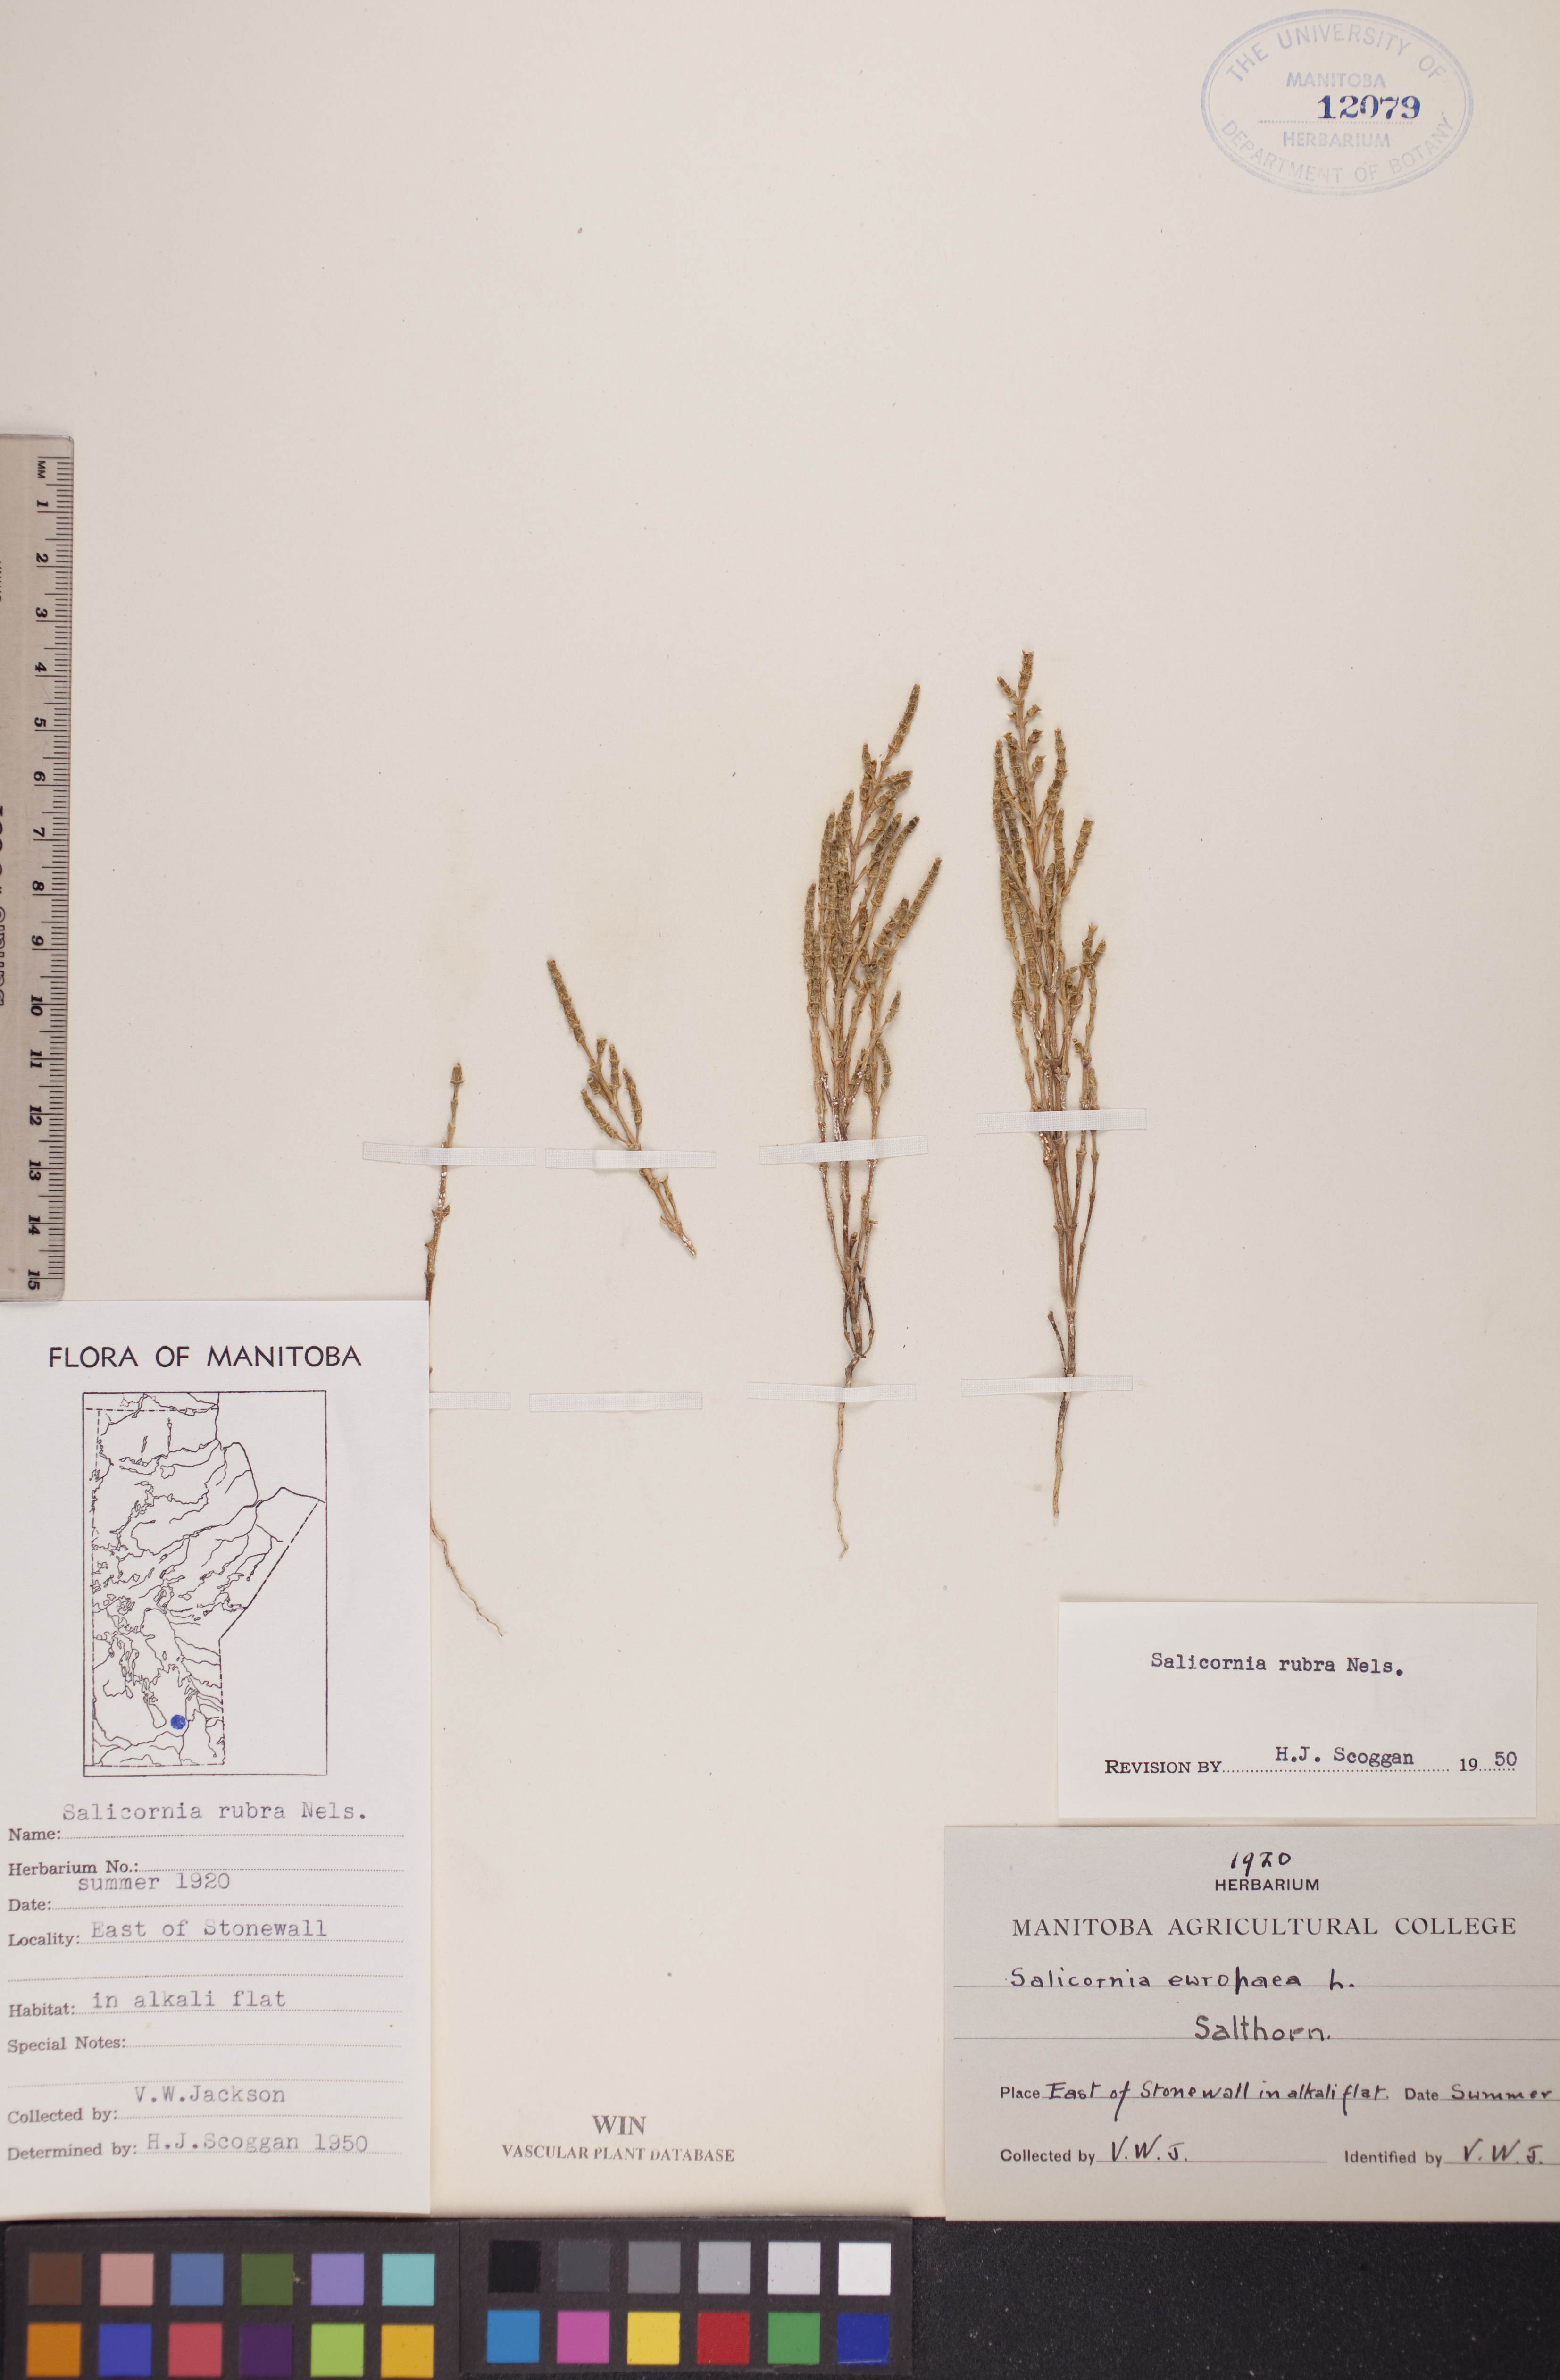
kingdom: Plantae
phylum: Tracheophyta
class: Magnoliopsida
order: Caryophyllales
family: Amaranthaceae
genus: Salicornia
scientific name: Salicornia rubra
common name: Red glasswort
